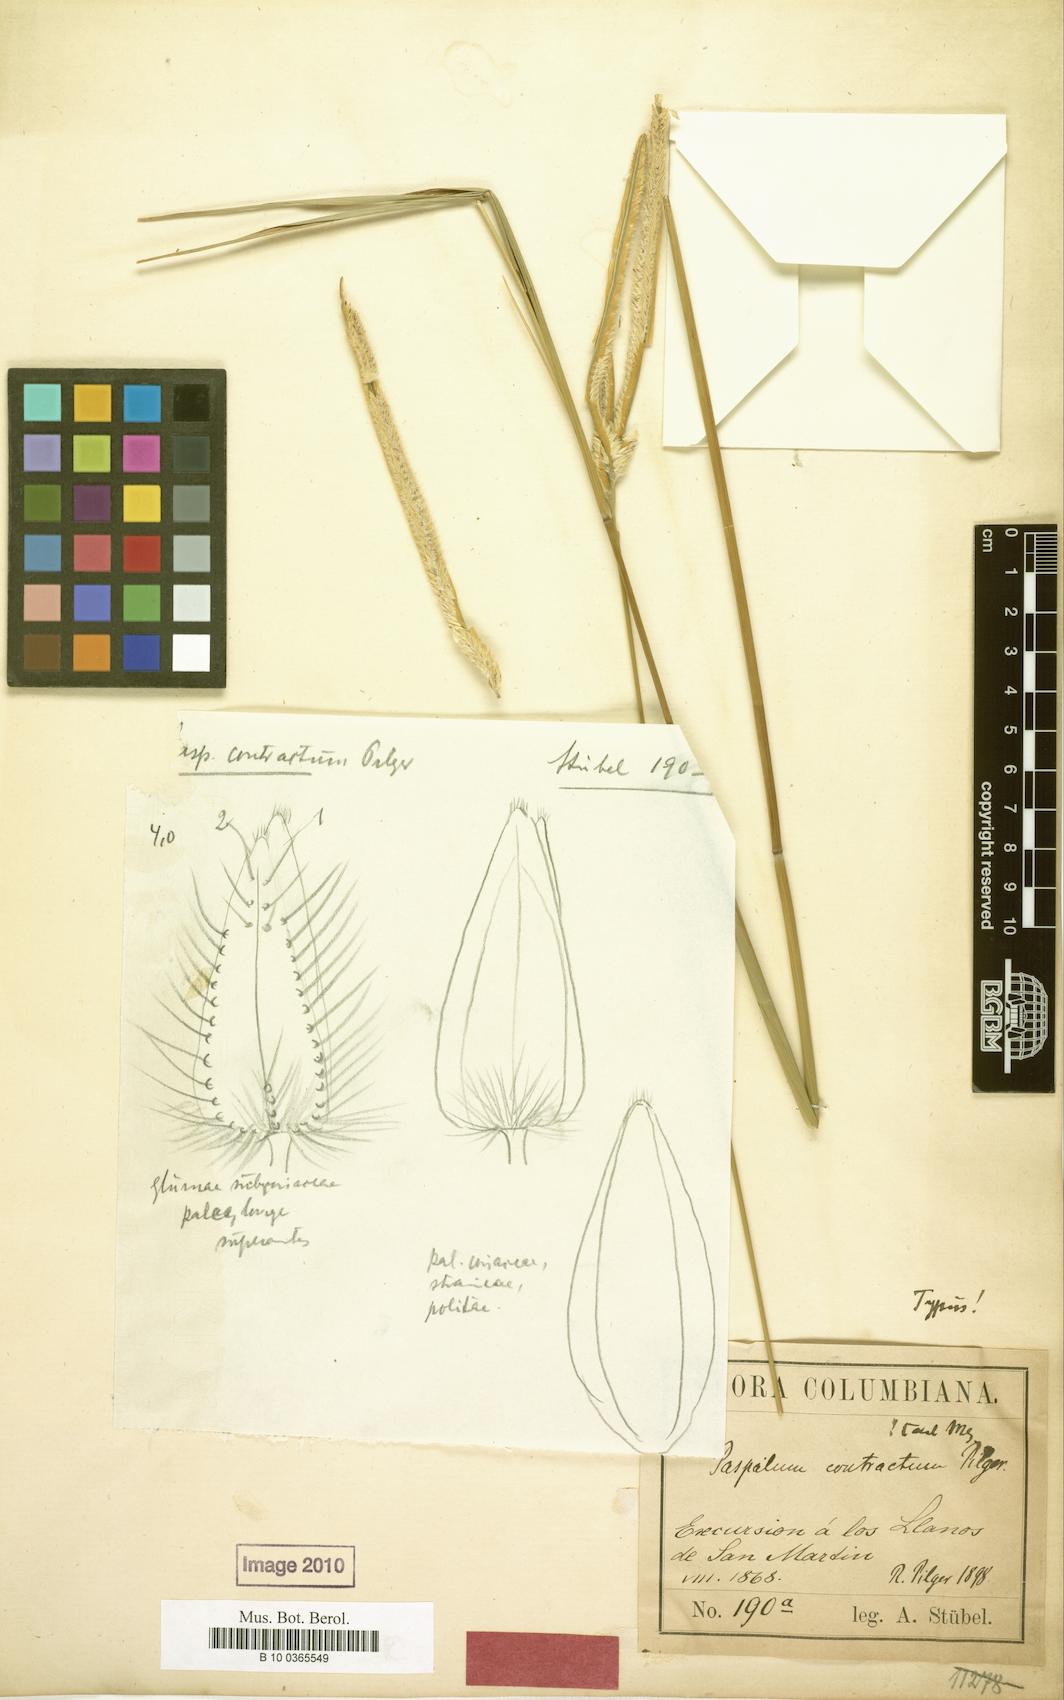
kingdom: Plantae
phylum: Tracheophyta
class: Liliopsida
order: Poales
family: Poaceae
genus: Paspalum
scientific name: Paspalum lanciflorum
